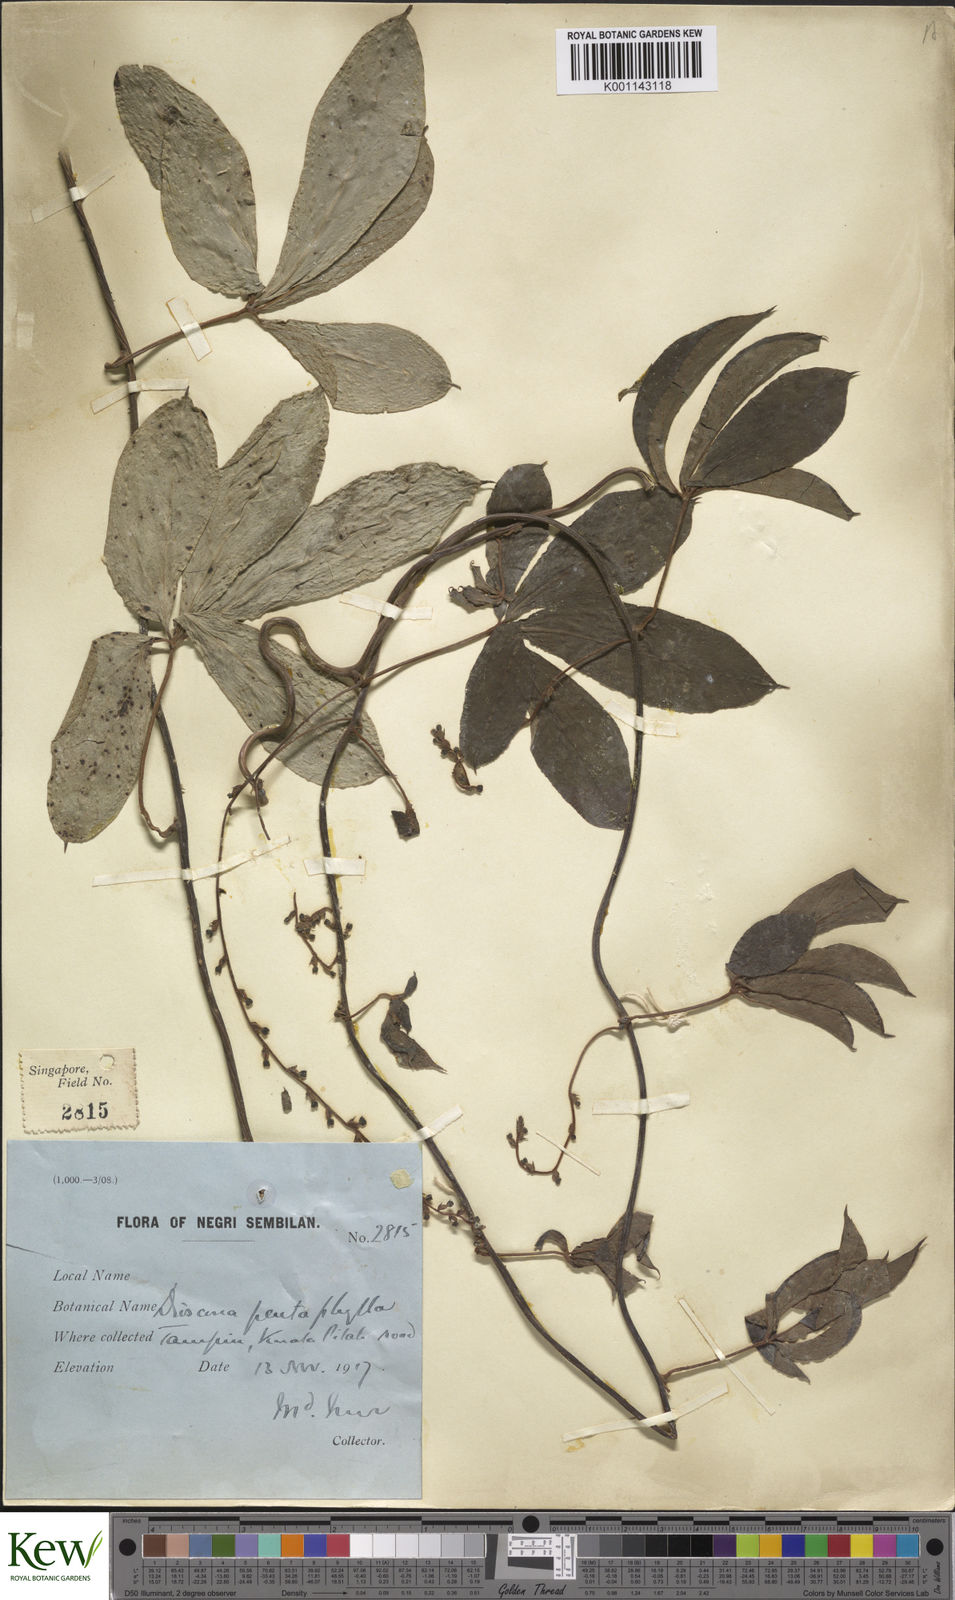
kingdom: Plantae
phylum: Tracheophyta
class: Liliopsida
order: Dioscoreales
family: Dioscoreaceae
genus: Dioscorea
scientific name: Dioscorea pentaphylla
